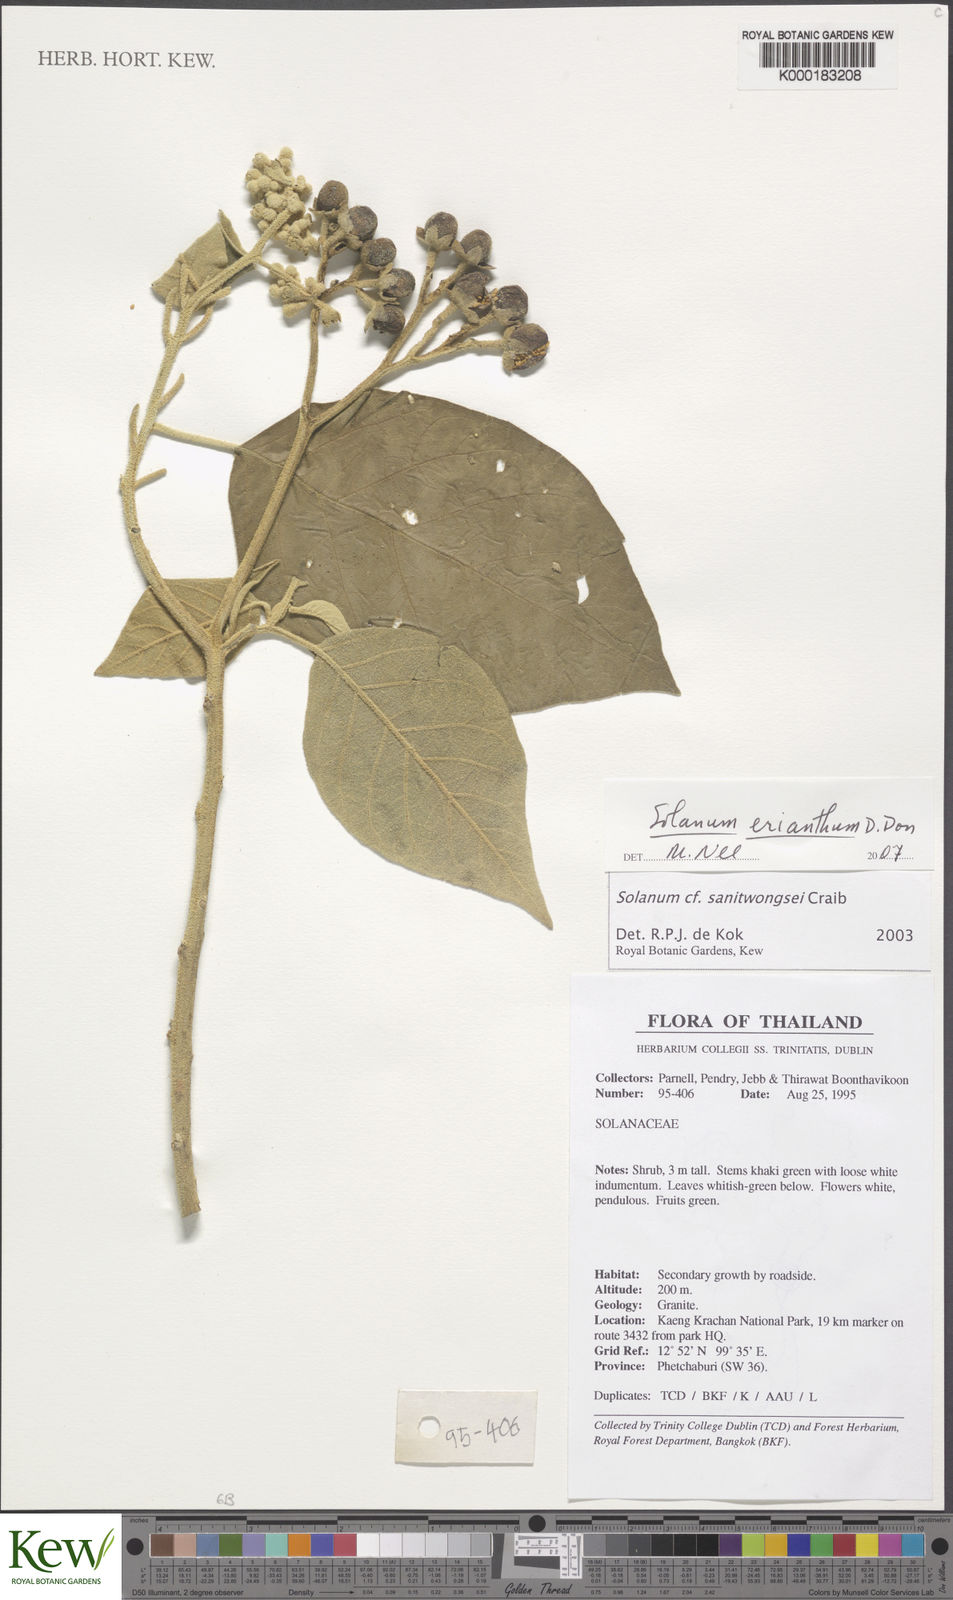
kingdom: Plantae
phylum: Tracheophyta
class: Magnoliopsida
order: Solanales
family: Solanaceae
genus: Solanum
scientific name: Solanum violaceum
